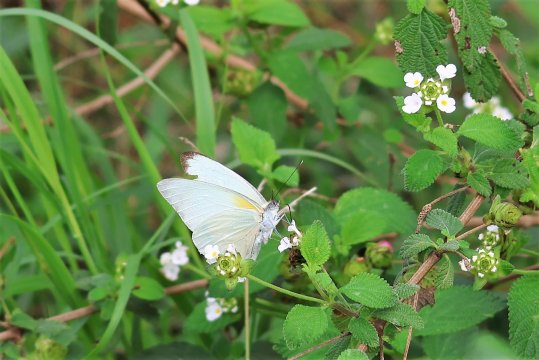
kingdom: Animalia
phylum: Arthropoda
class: Insecta
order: Lepidoptera
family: Pieridae
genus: Glutophrissa
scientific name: Glutophrissa drusilla
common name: Florida White
